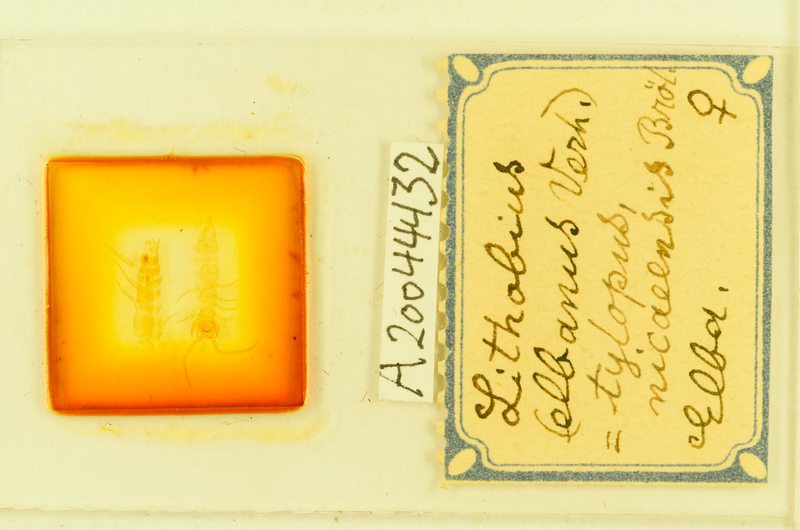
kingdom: Animalia
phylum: Arthropoda
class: Chilopoda
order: Lithobiomorpha
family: Lithobiidae
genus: Lithobius
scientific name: Lithobius tylopus
